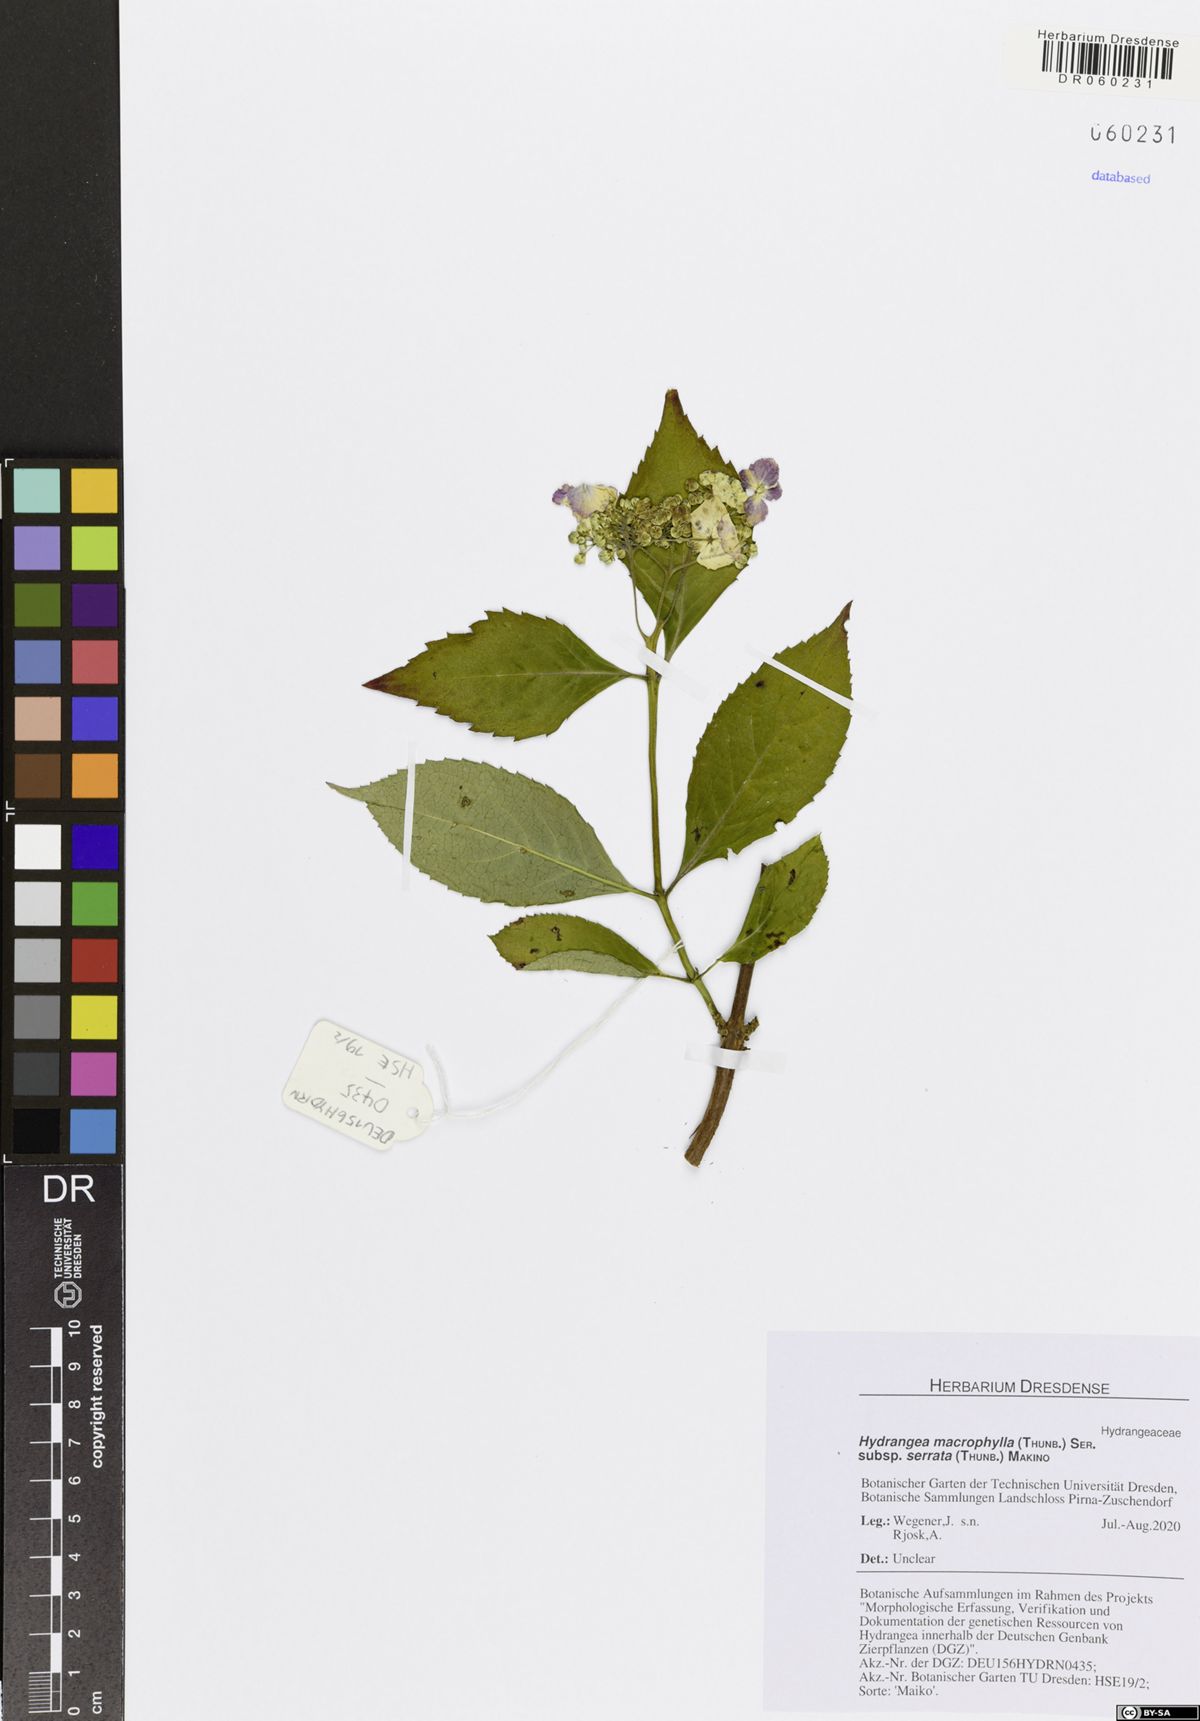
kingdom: Plantae
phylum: Tracheophyta
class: Magnoliopsida
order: Cornales
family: Hydrangeaceae
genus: Hydrangea
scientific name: Hydrangea serrata
